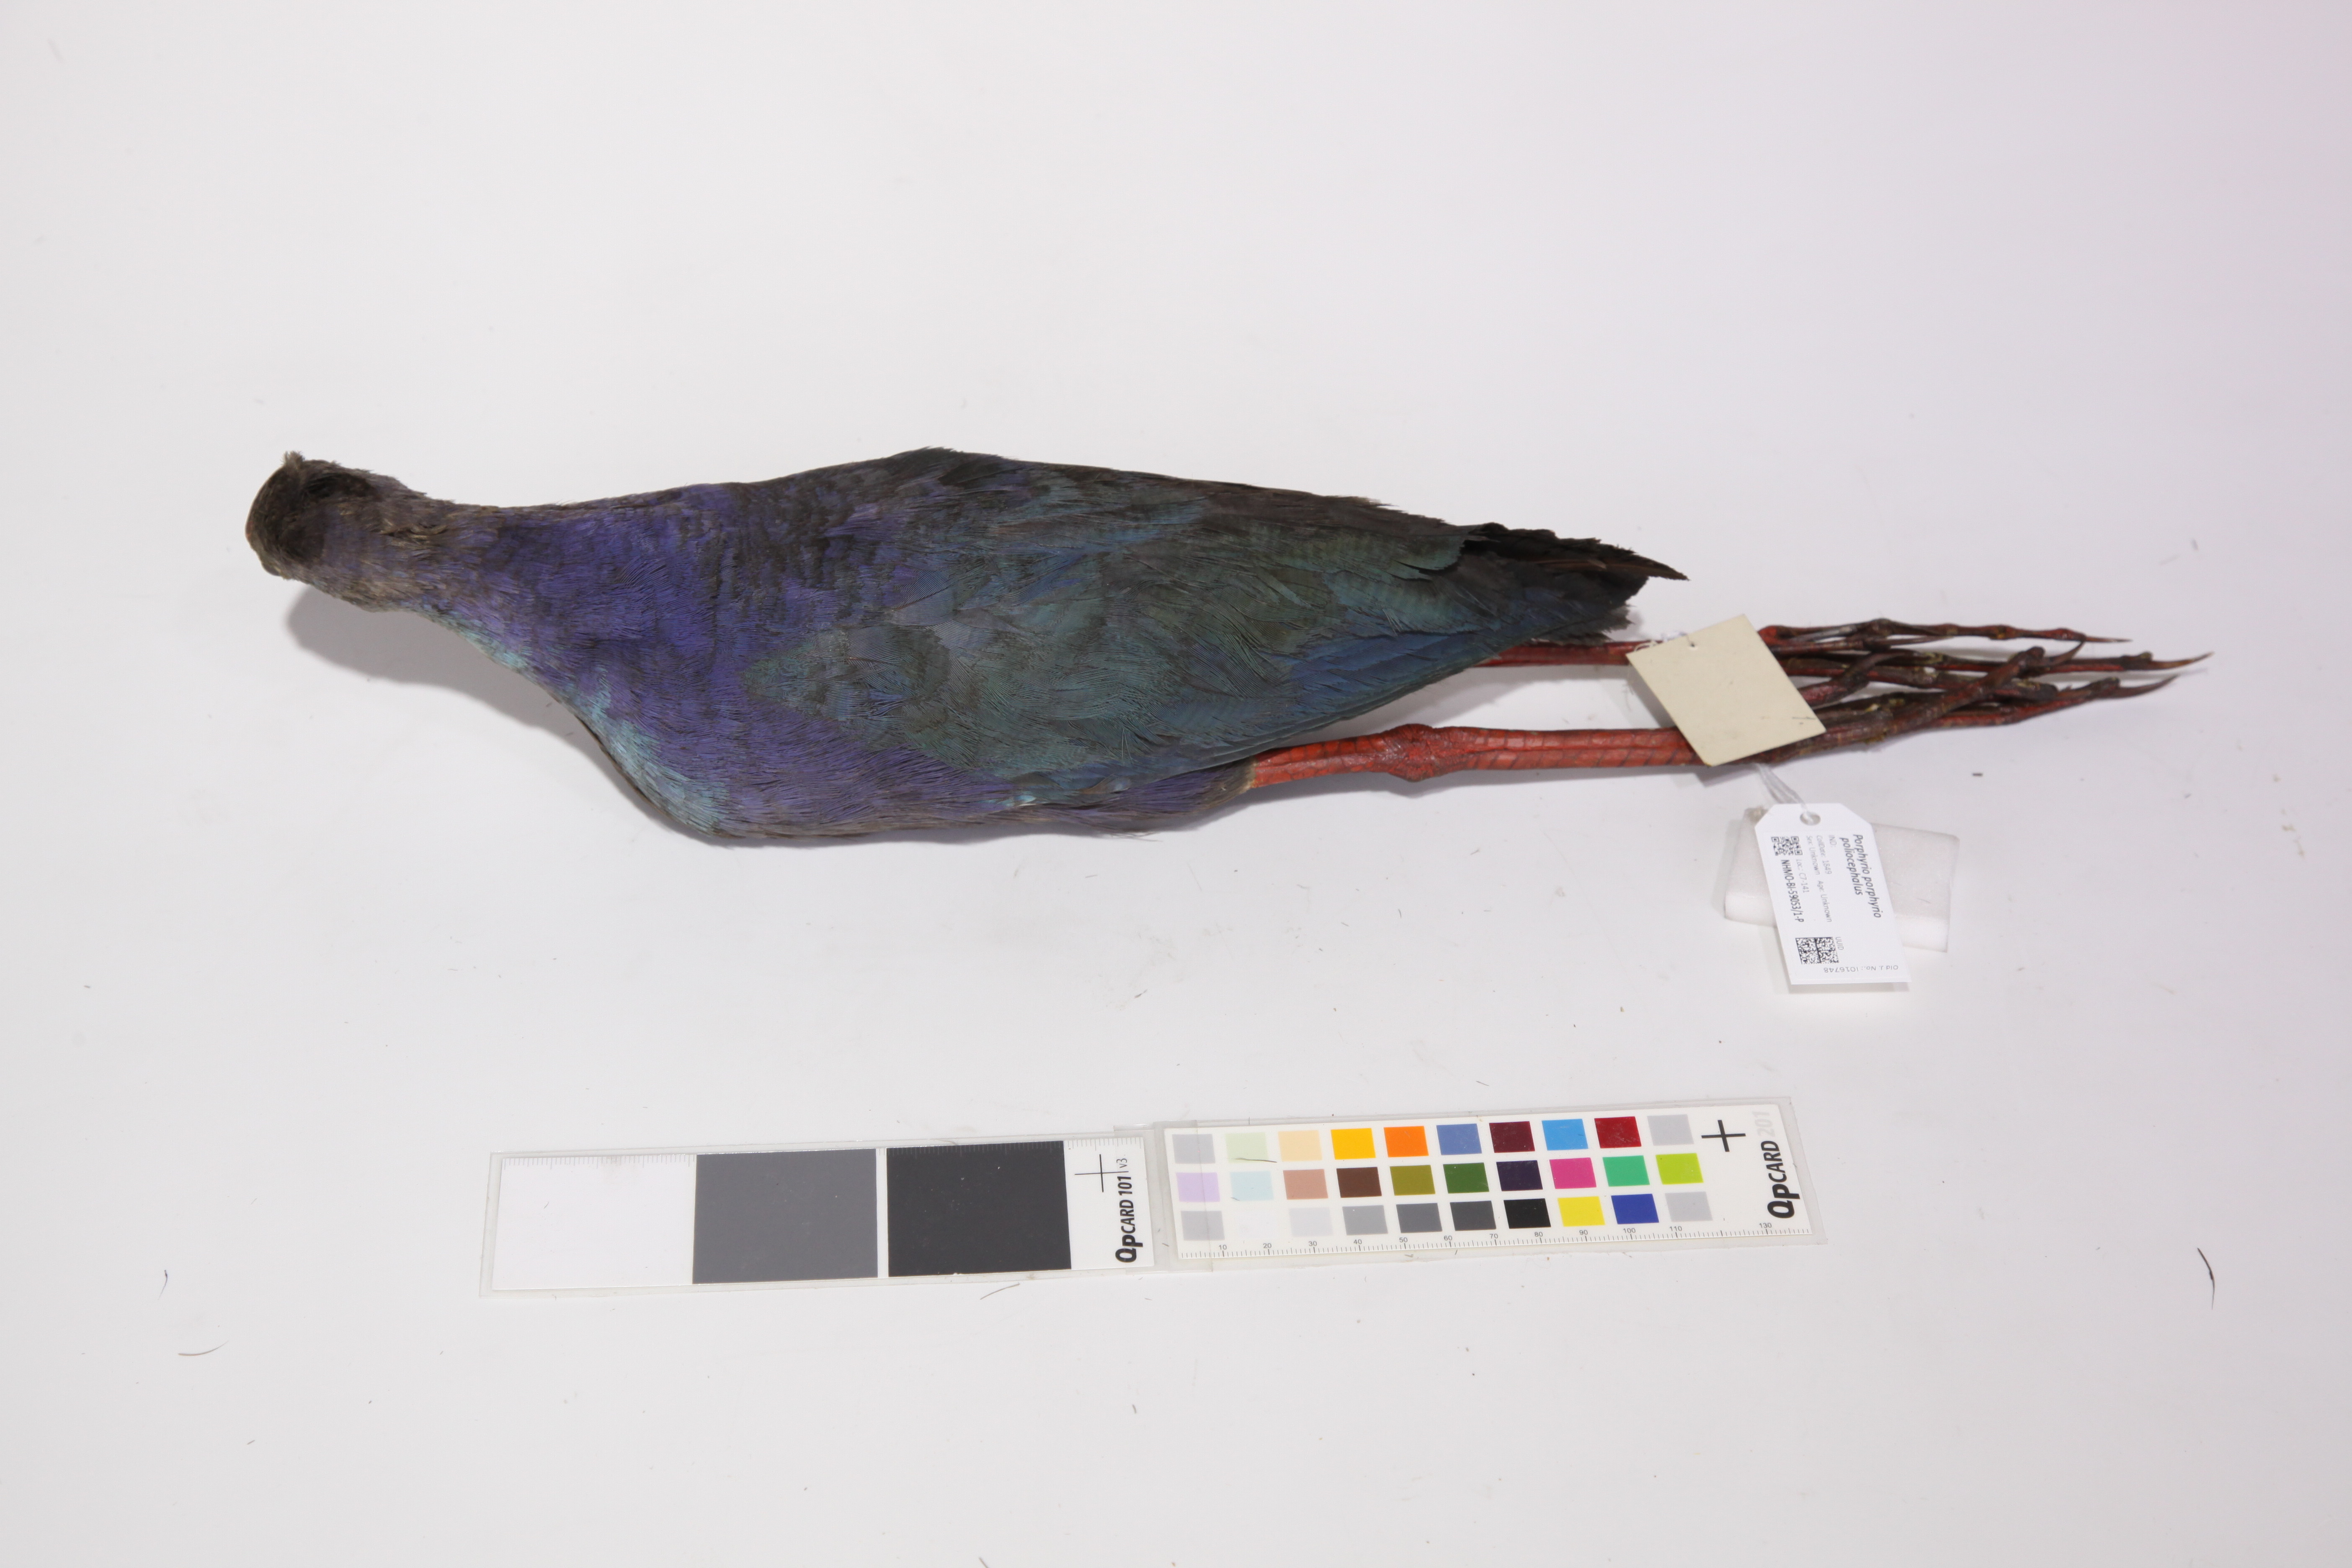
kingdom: Animalia
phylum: Chordata
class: Aves
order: Gruiformes
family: Rallidae
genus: Porphyrio
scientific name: Porphyrio porphyrio
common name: Purple swamphen
